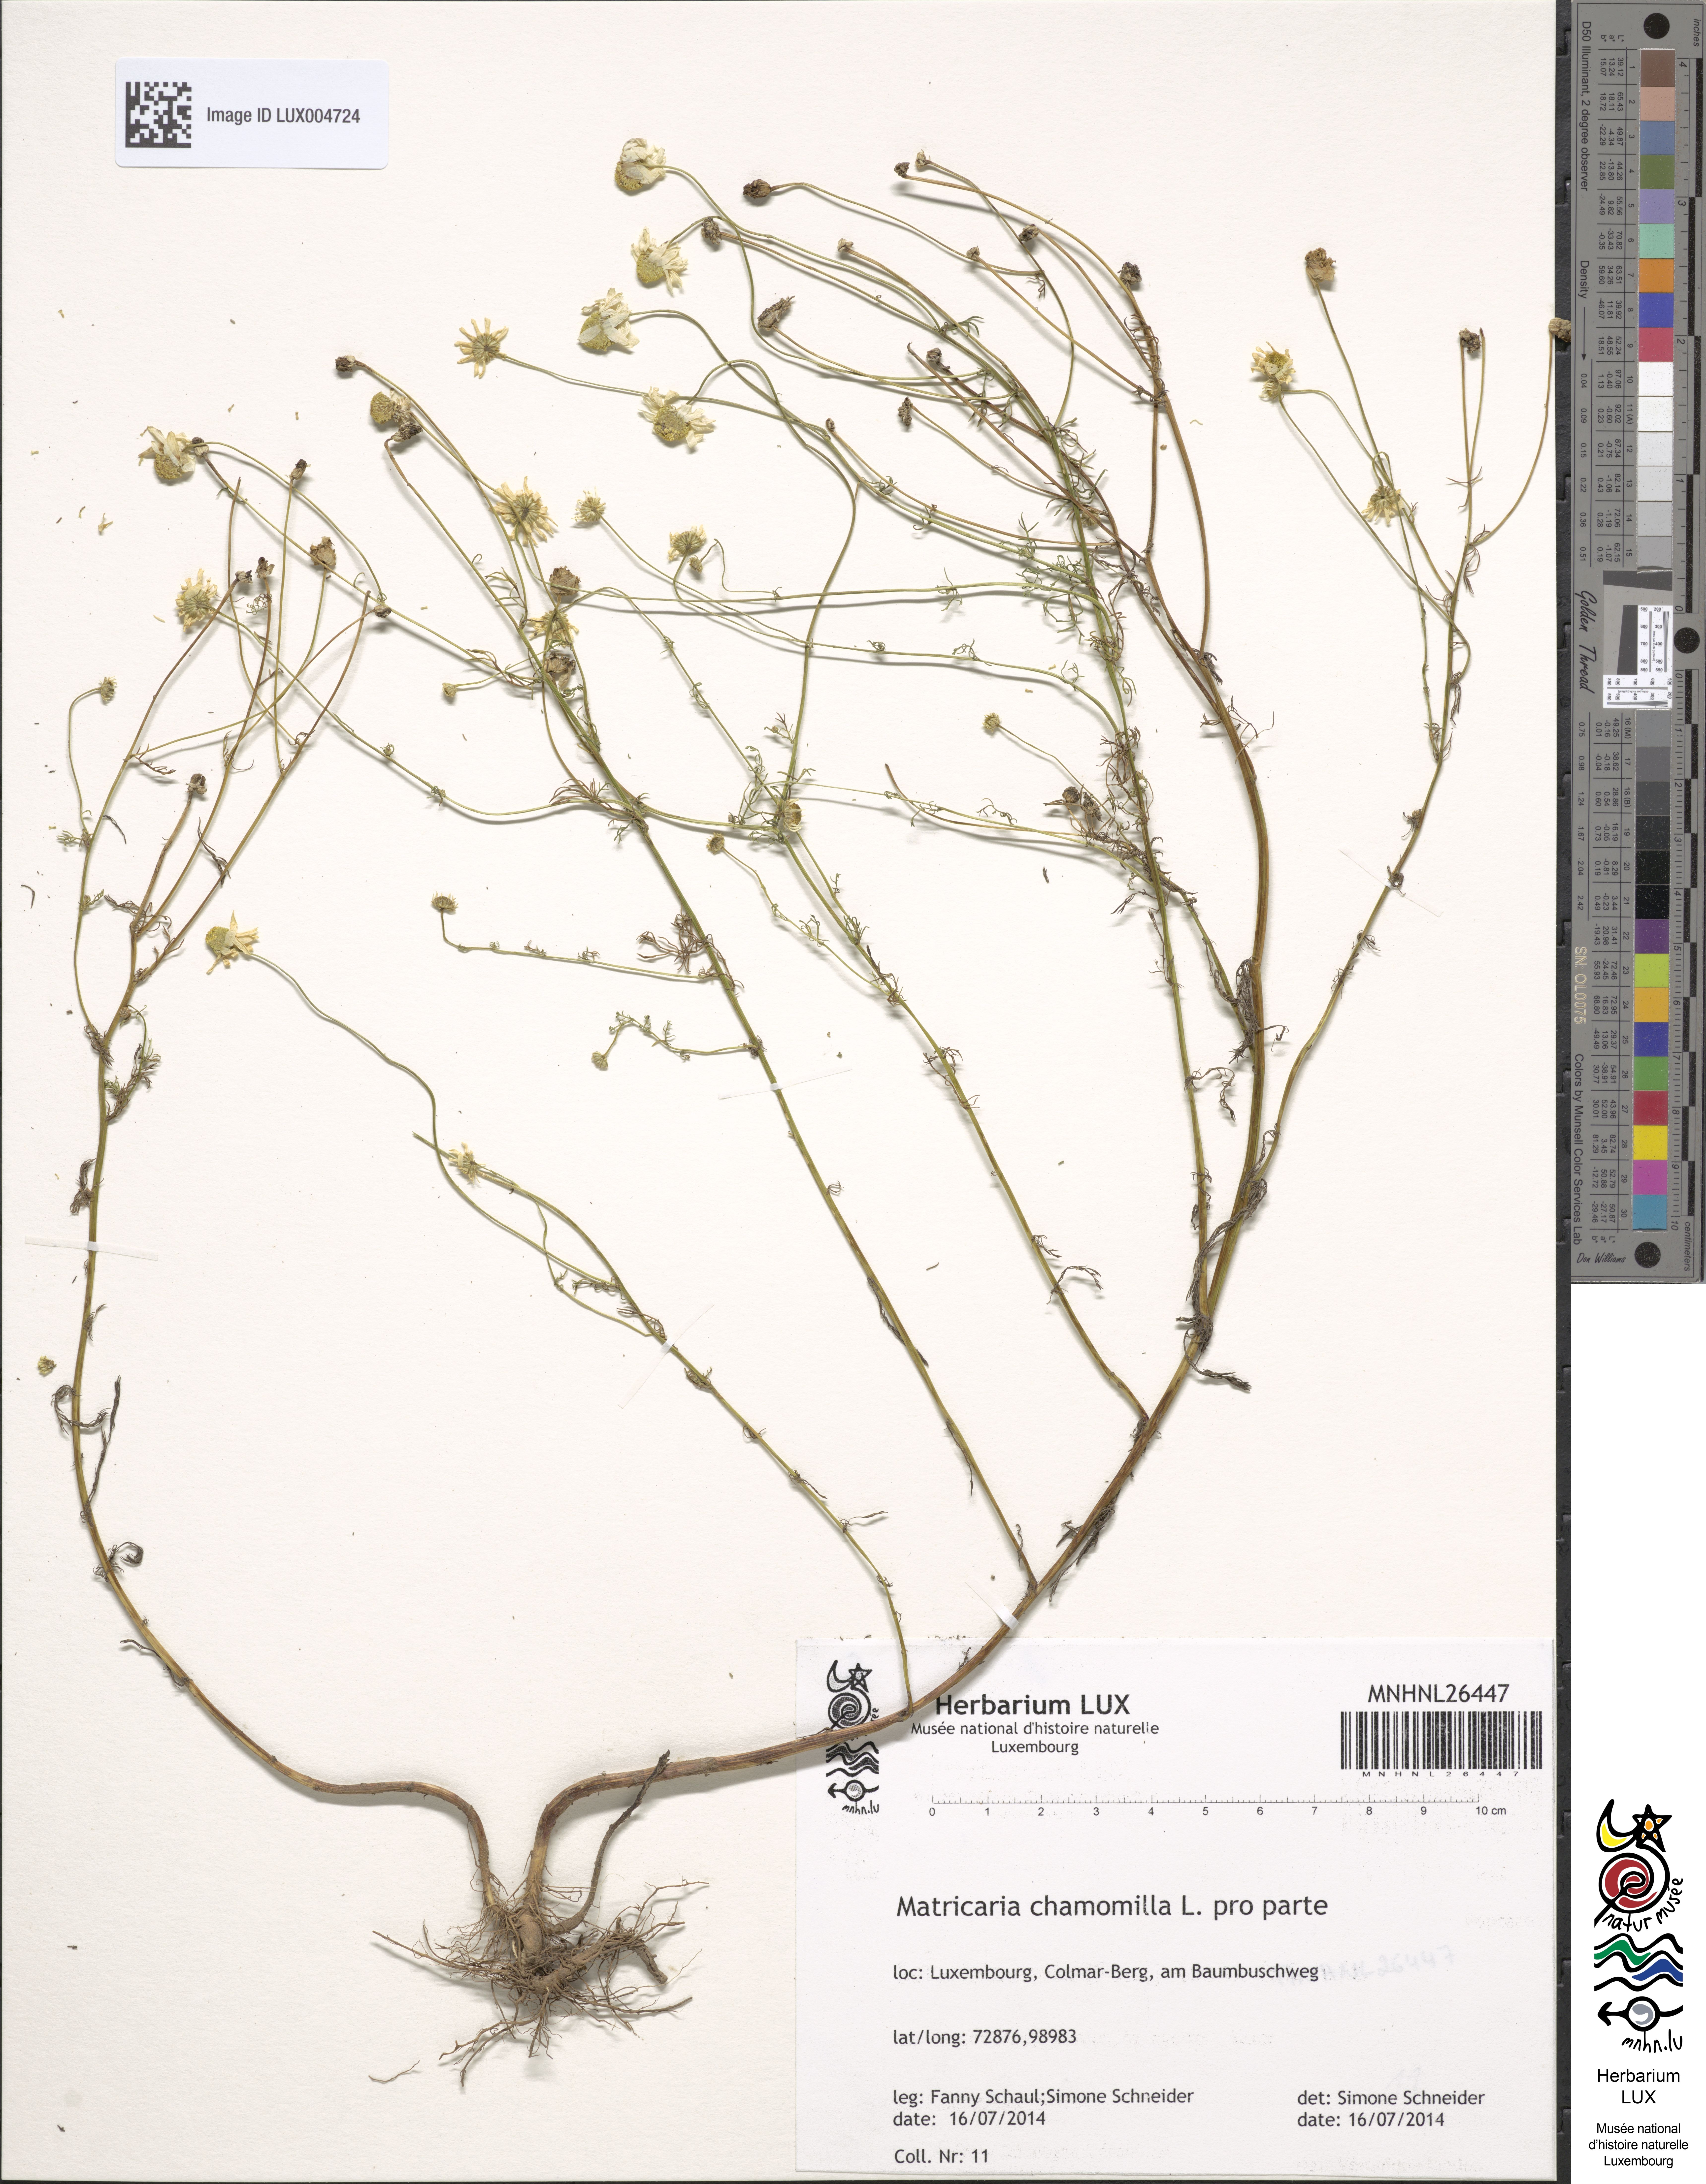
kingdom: Plantae
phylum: Tracheophyta
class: Magnoliopsida
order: Asterales
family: Asteraceae
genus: Matricaria
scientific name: Matricaria chamomilla
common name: Scented mayweed
